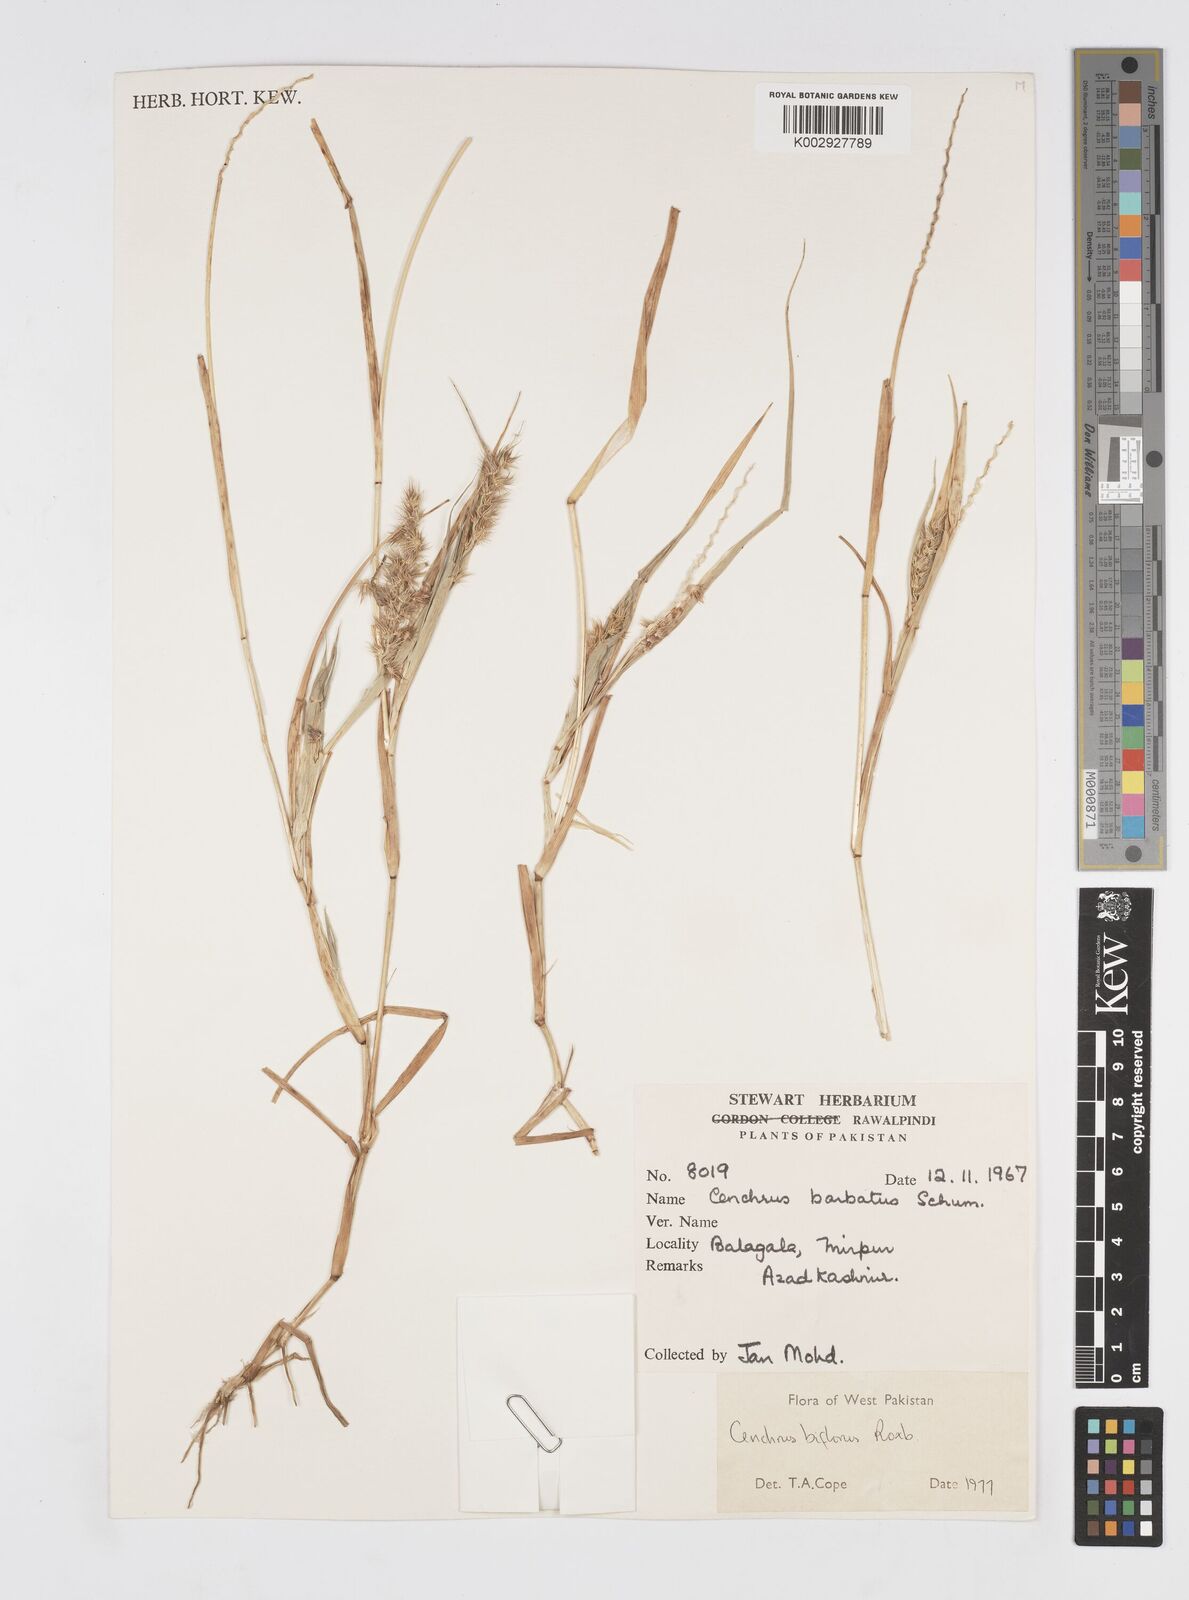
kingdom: Plantae
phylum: Tracheophyta
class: Liliopsida
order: Poales
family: Poaceae
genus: Cenchrus
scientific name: Cenchrus biflorus
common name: Indian sandbur
